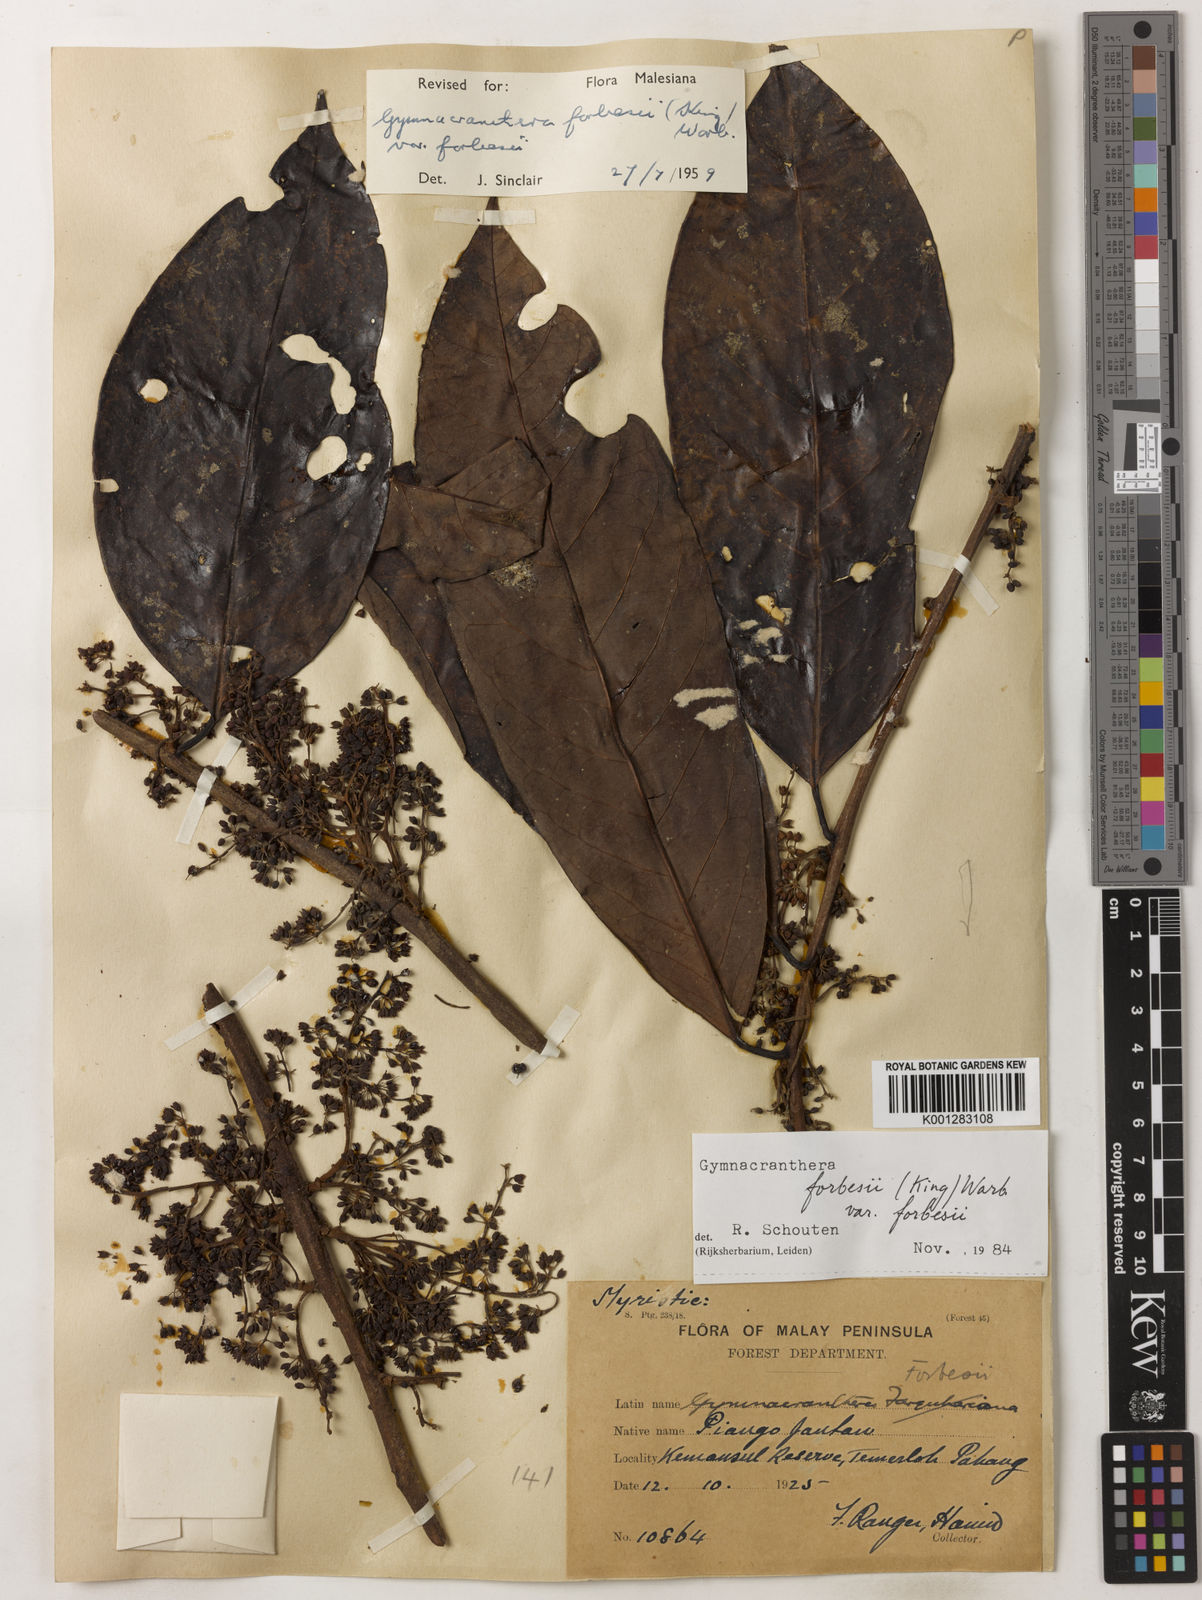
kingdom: Plantae
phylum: Tracheophyta
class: Magnoliopsida
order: Magnoliales
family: Myristicaceae
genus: Gymnacranthera
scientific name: Gymnacranthera forbesii
